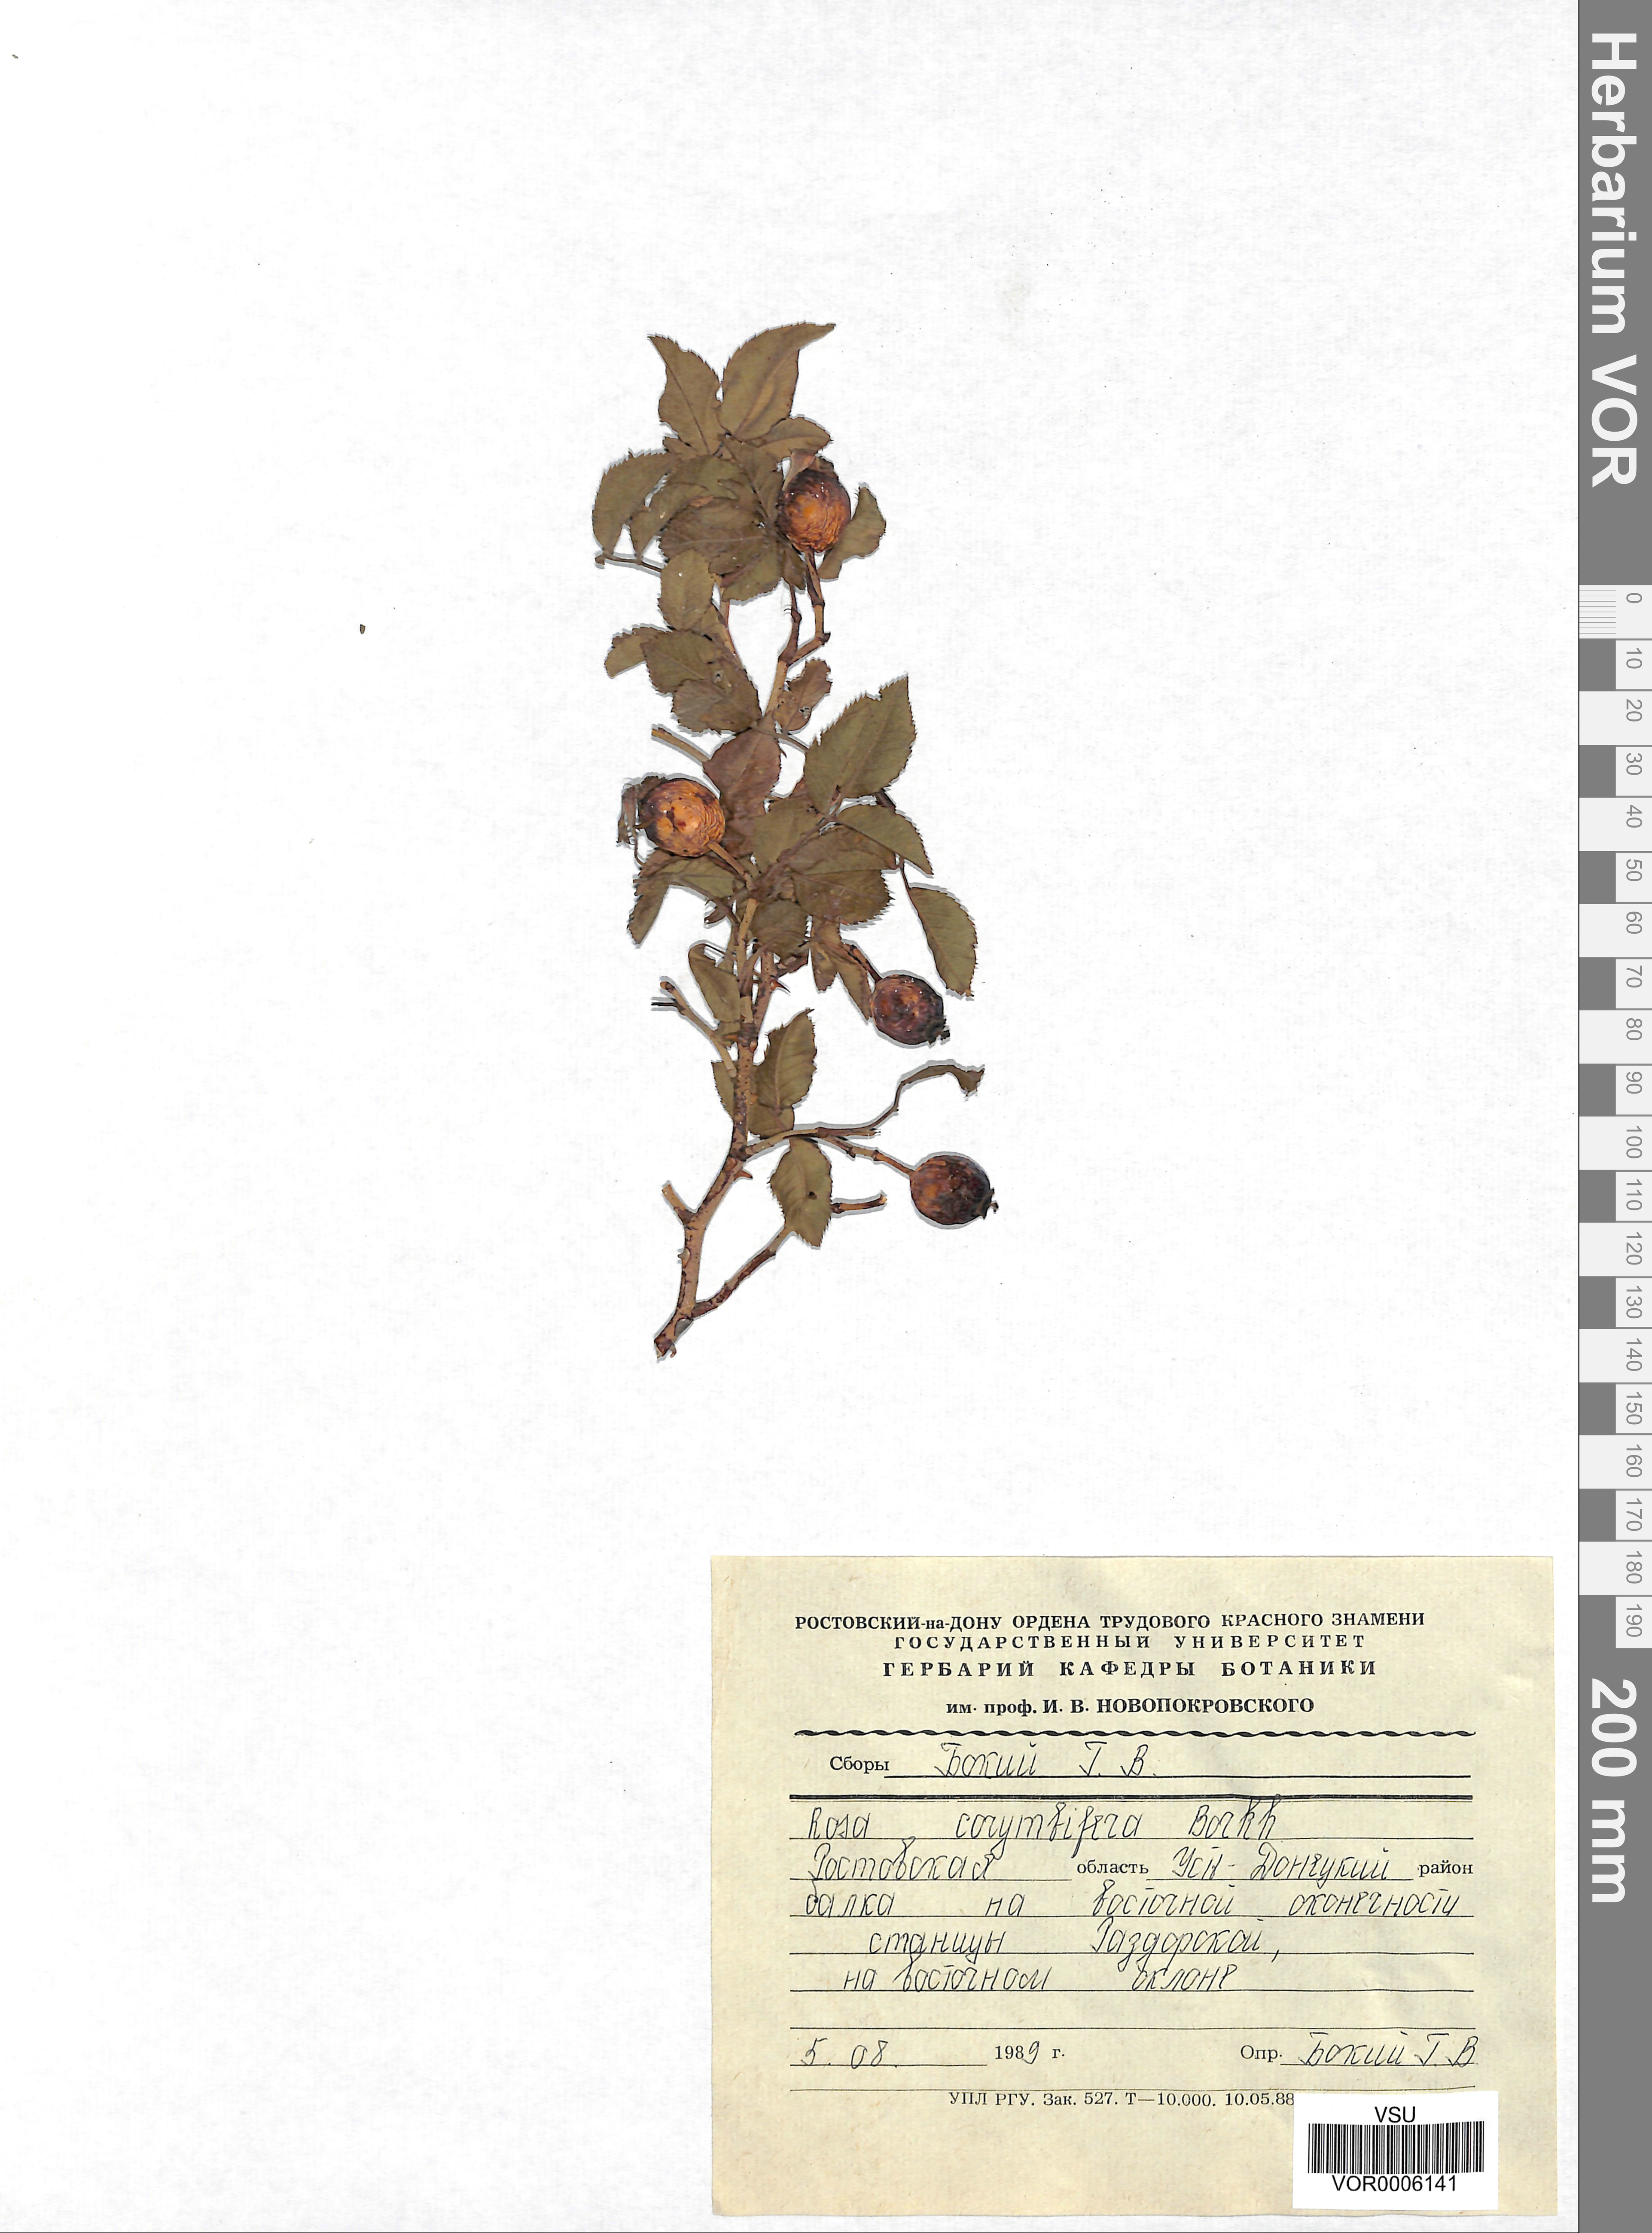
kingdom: Plantae
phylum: Tracheophyta
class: Magnoliopsida
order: Rosales
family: Rosaceae
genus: Rosa
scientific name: Rosa corymbifera
